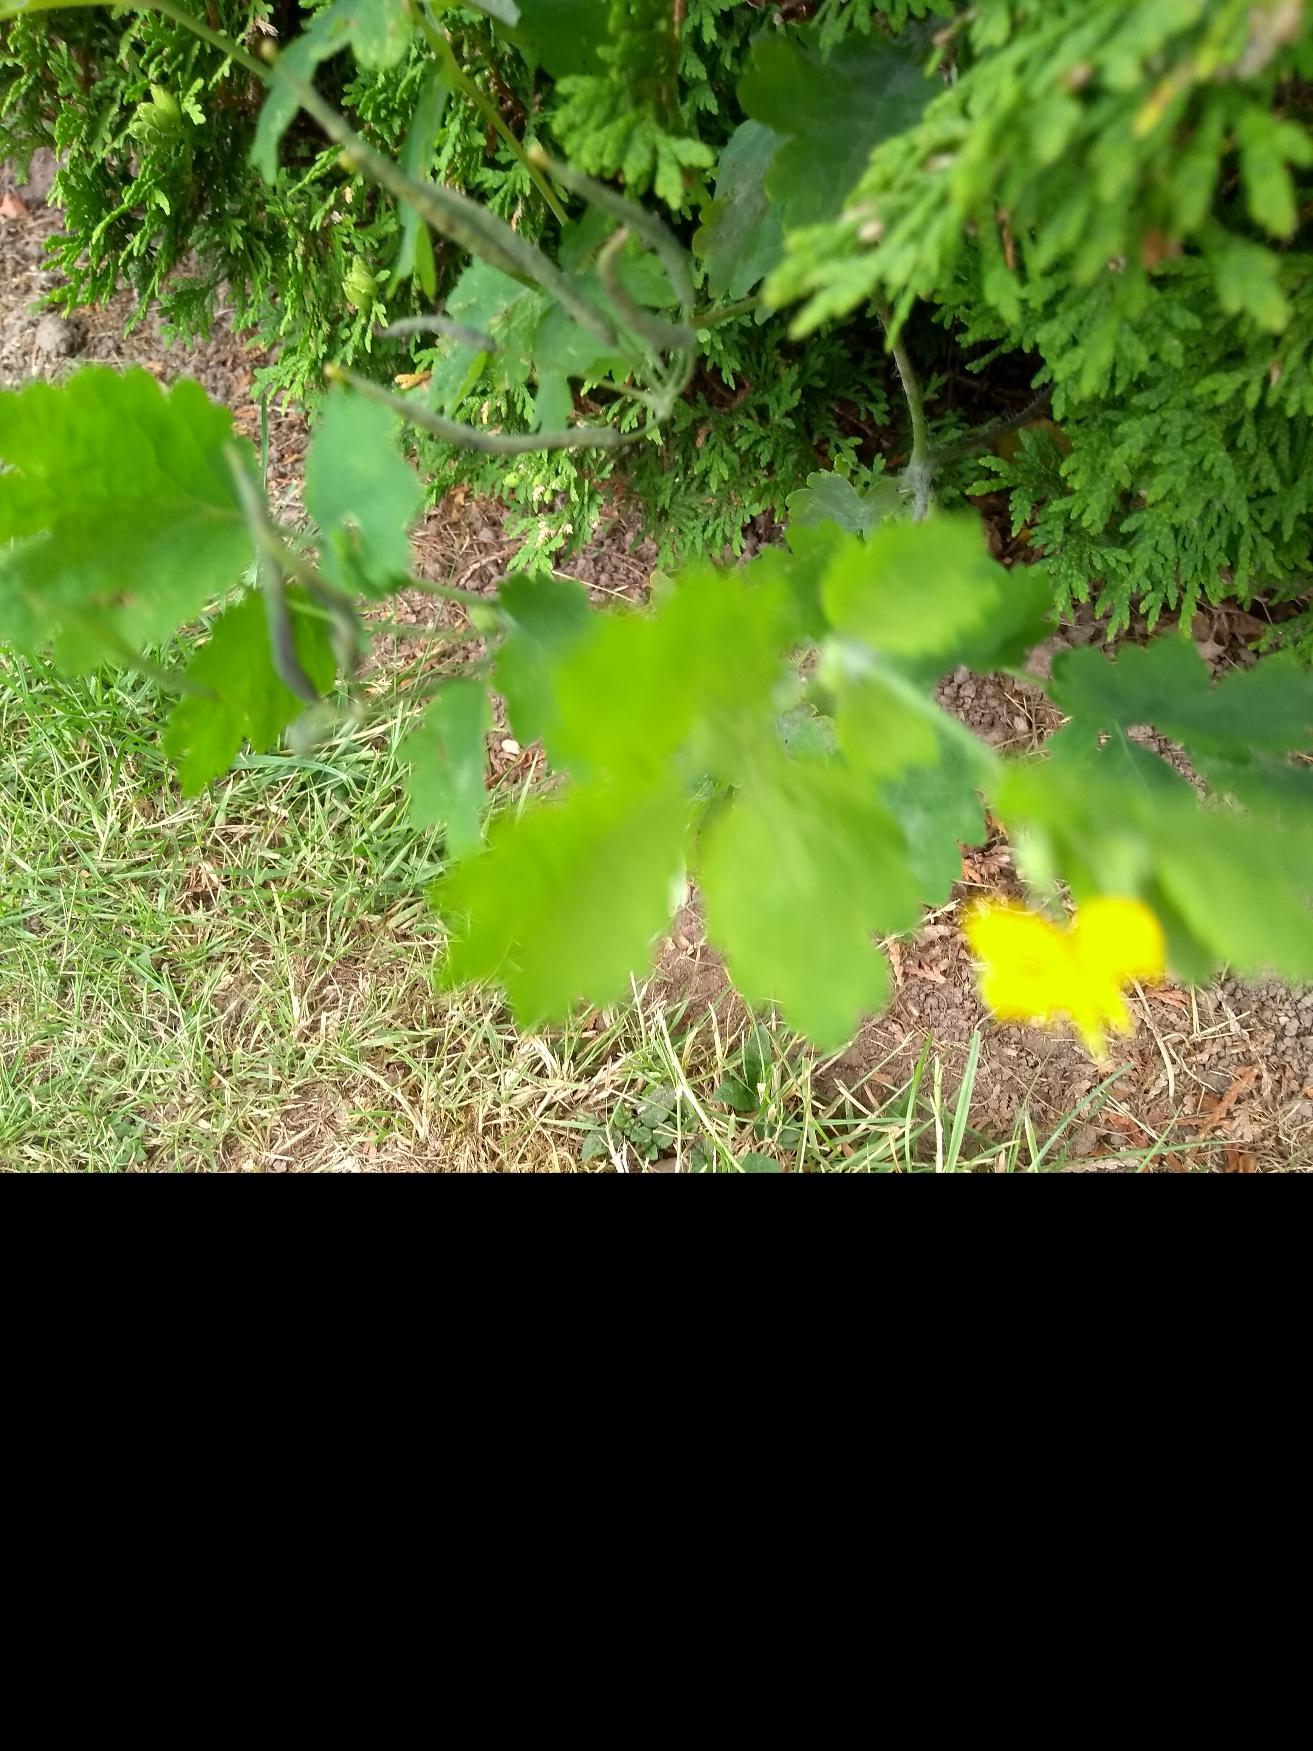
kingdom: Plantae
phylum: Tracheophyta
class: Magnoliopsida
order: Ranunculales
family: Papaveraceae
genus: Chelidonium
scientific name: Chelidonium majus
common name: Svaleurt
